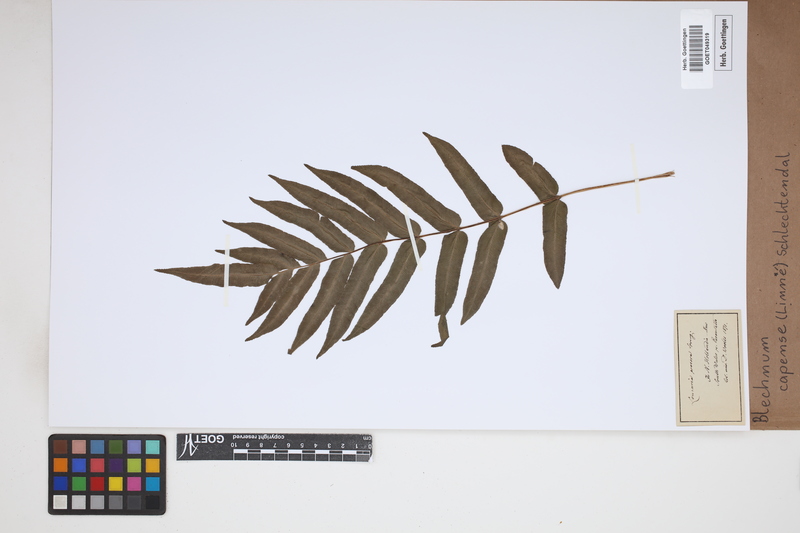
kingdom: Plantae
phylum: Tracheophyta
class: Polypodiopsida
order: Polypodiales
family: Blechnaceae
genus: Parablechnum
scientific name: Parablechnum capense
